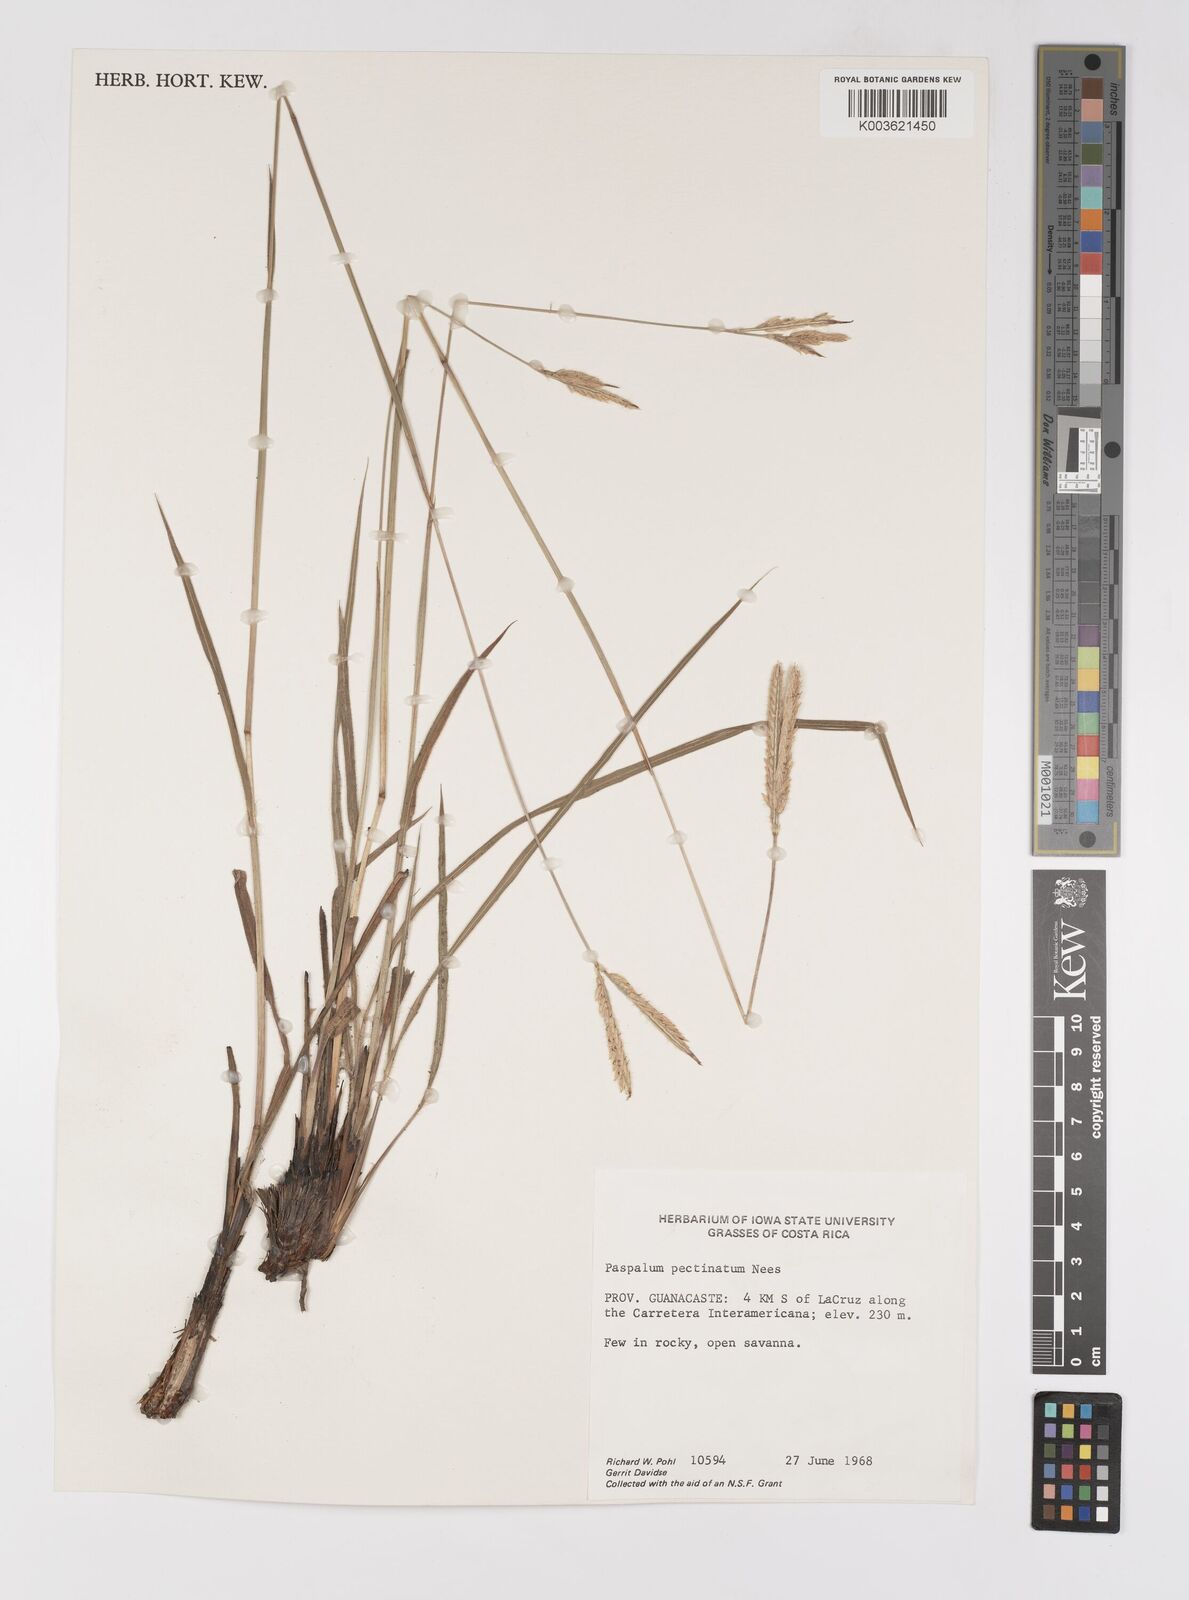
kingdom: Plantae
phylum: Tracheophyta
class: Liliopsida
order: Poales
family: Poaceae
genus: Paspalum
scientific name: Paspalum pectinatum
